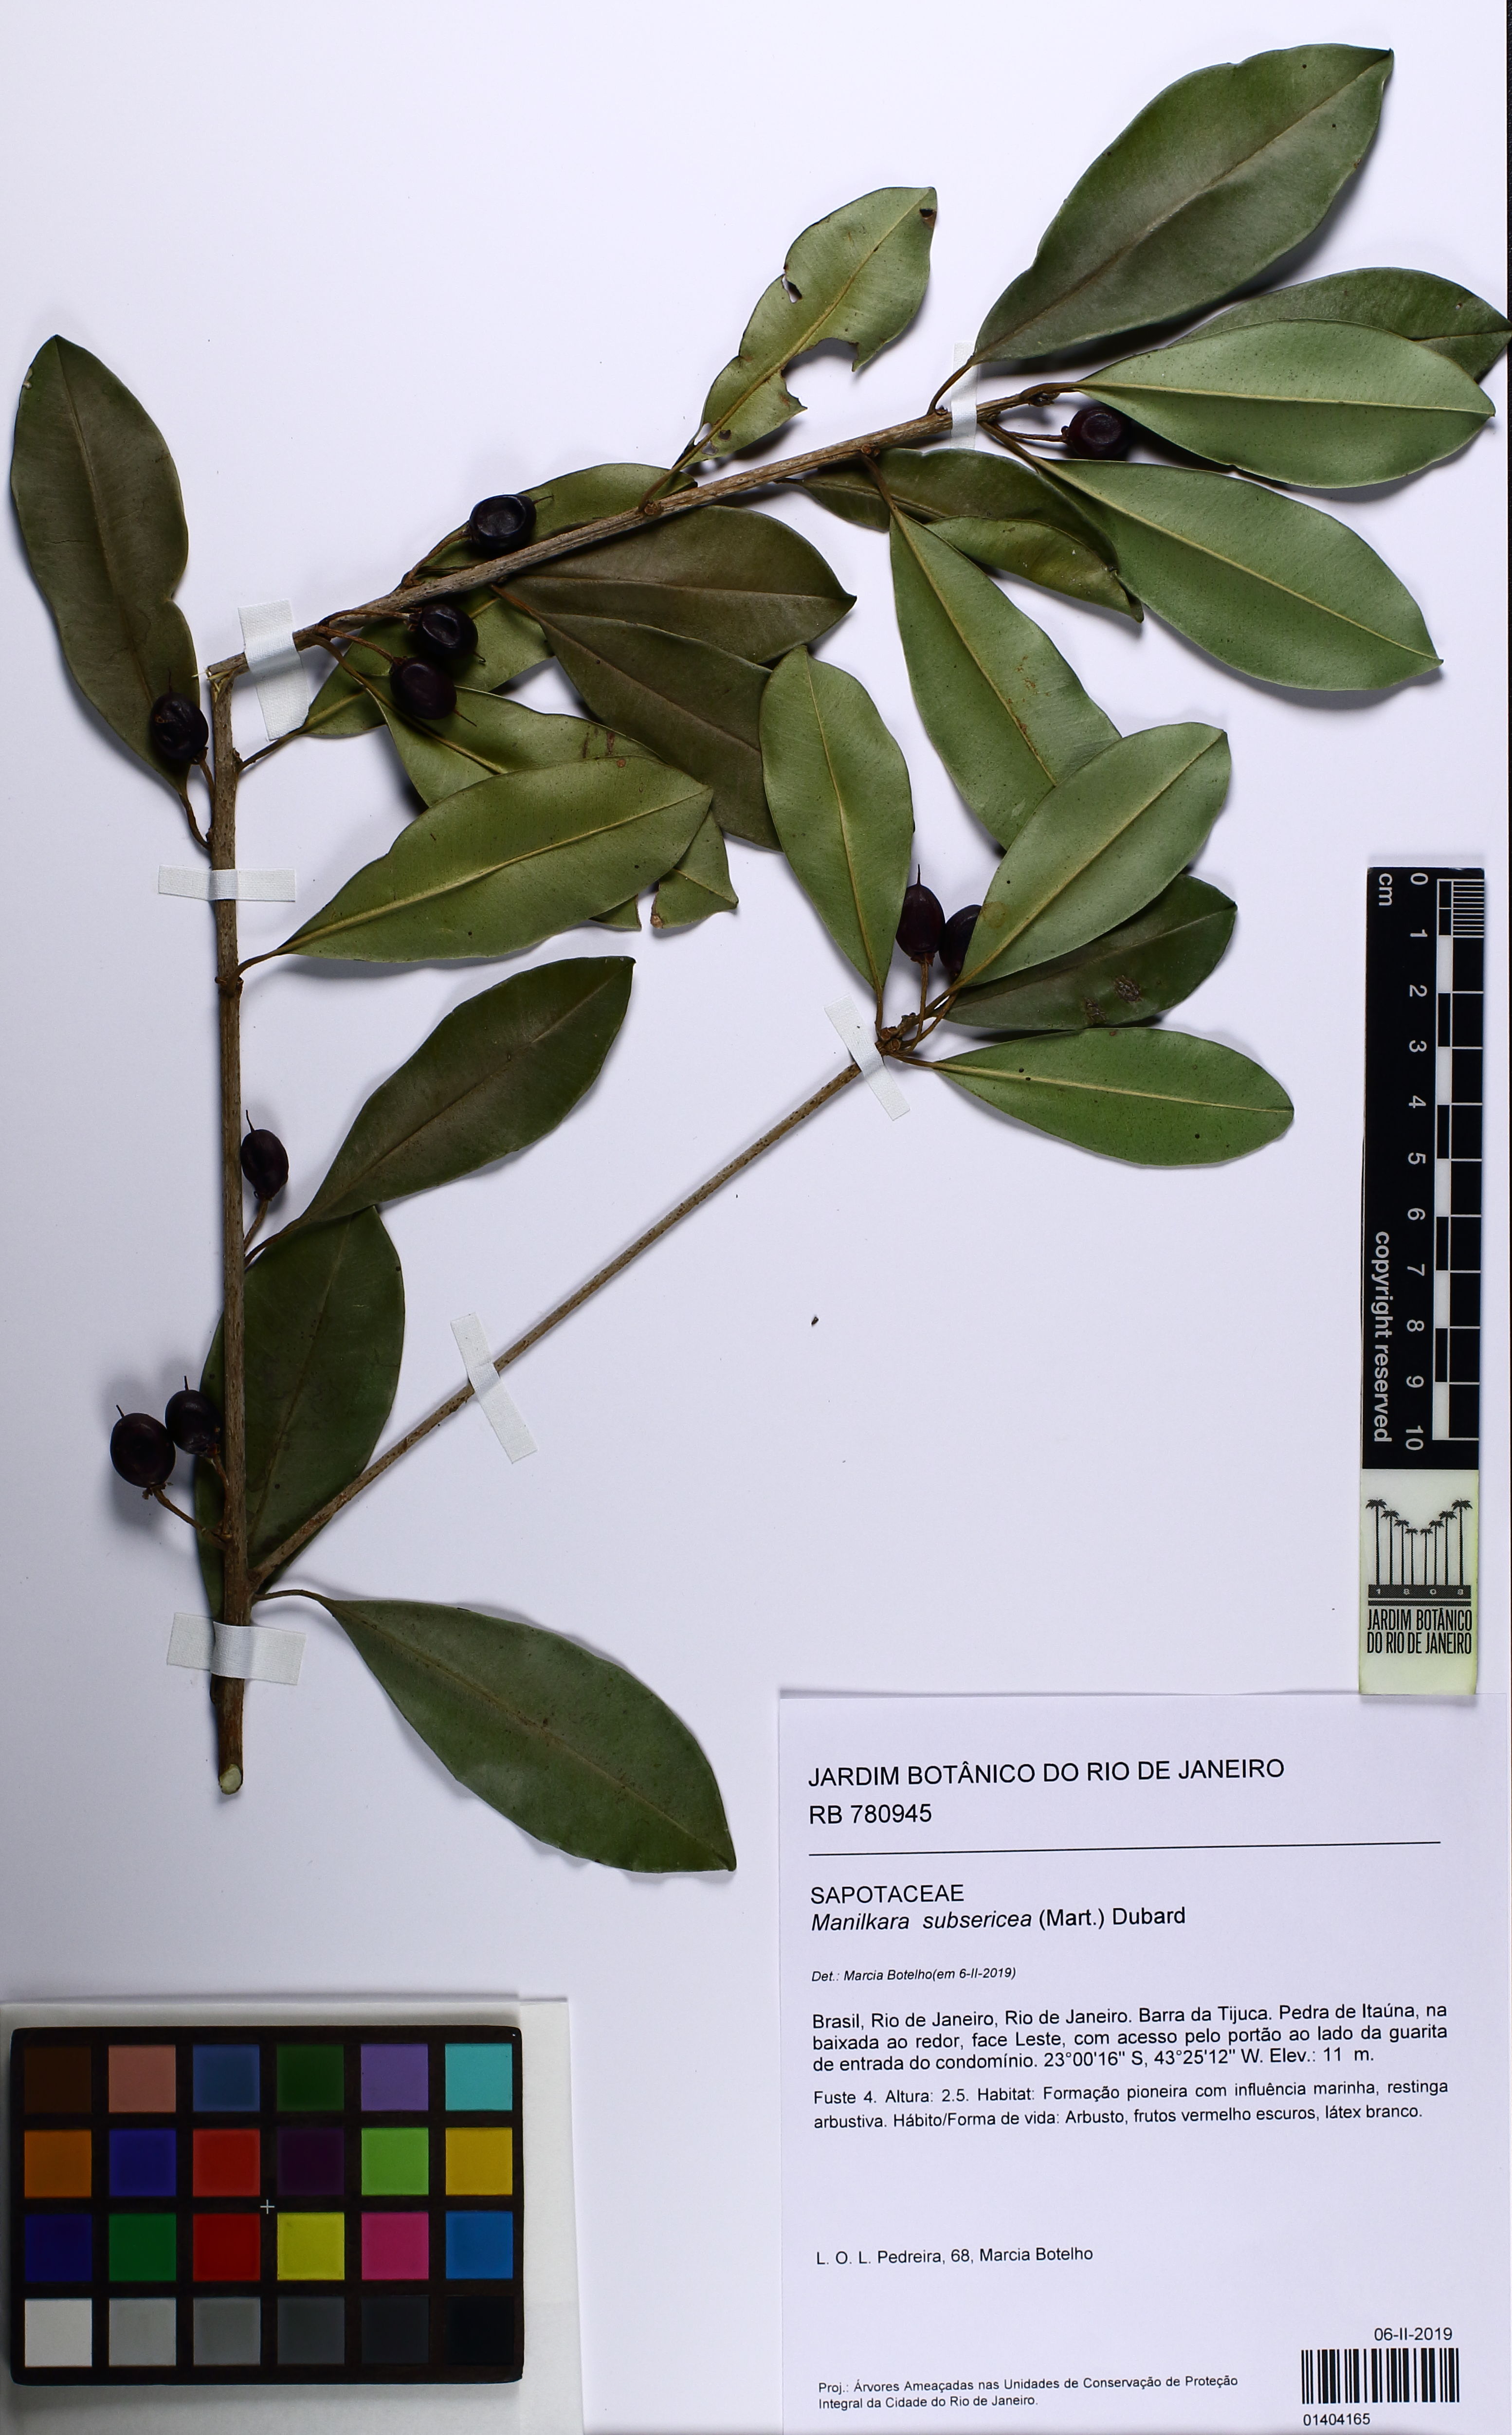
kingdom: Plantae
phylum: Tracheophyta
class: Magnoliopsida
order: Ericales
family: Sapotaceae
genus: Manilkara
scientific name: Manilkara subsericea
